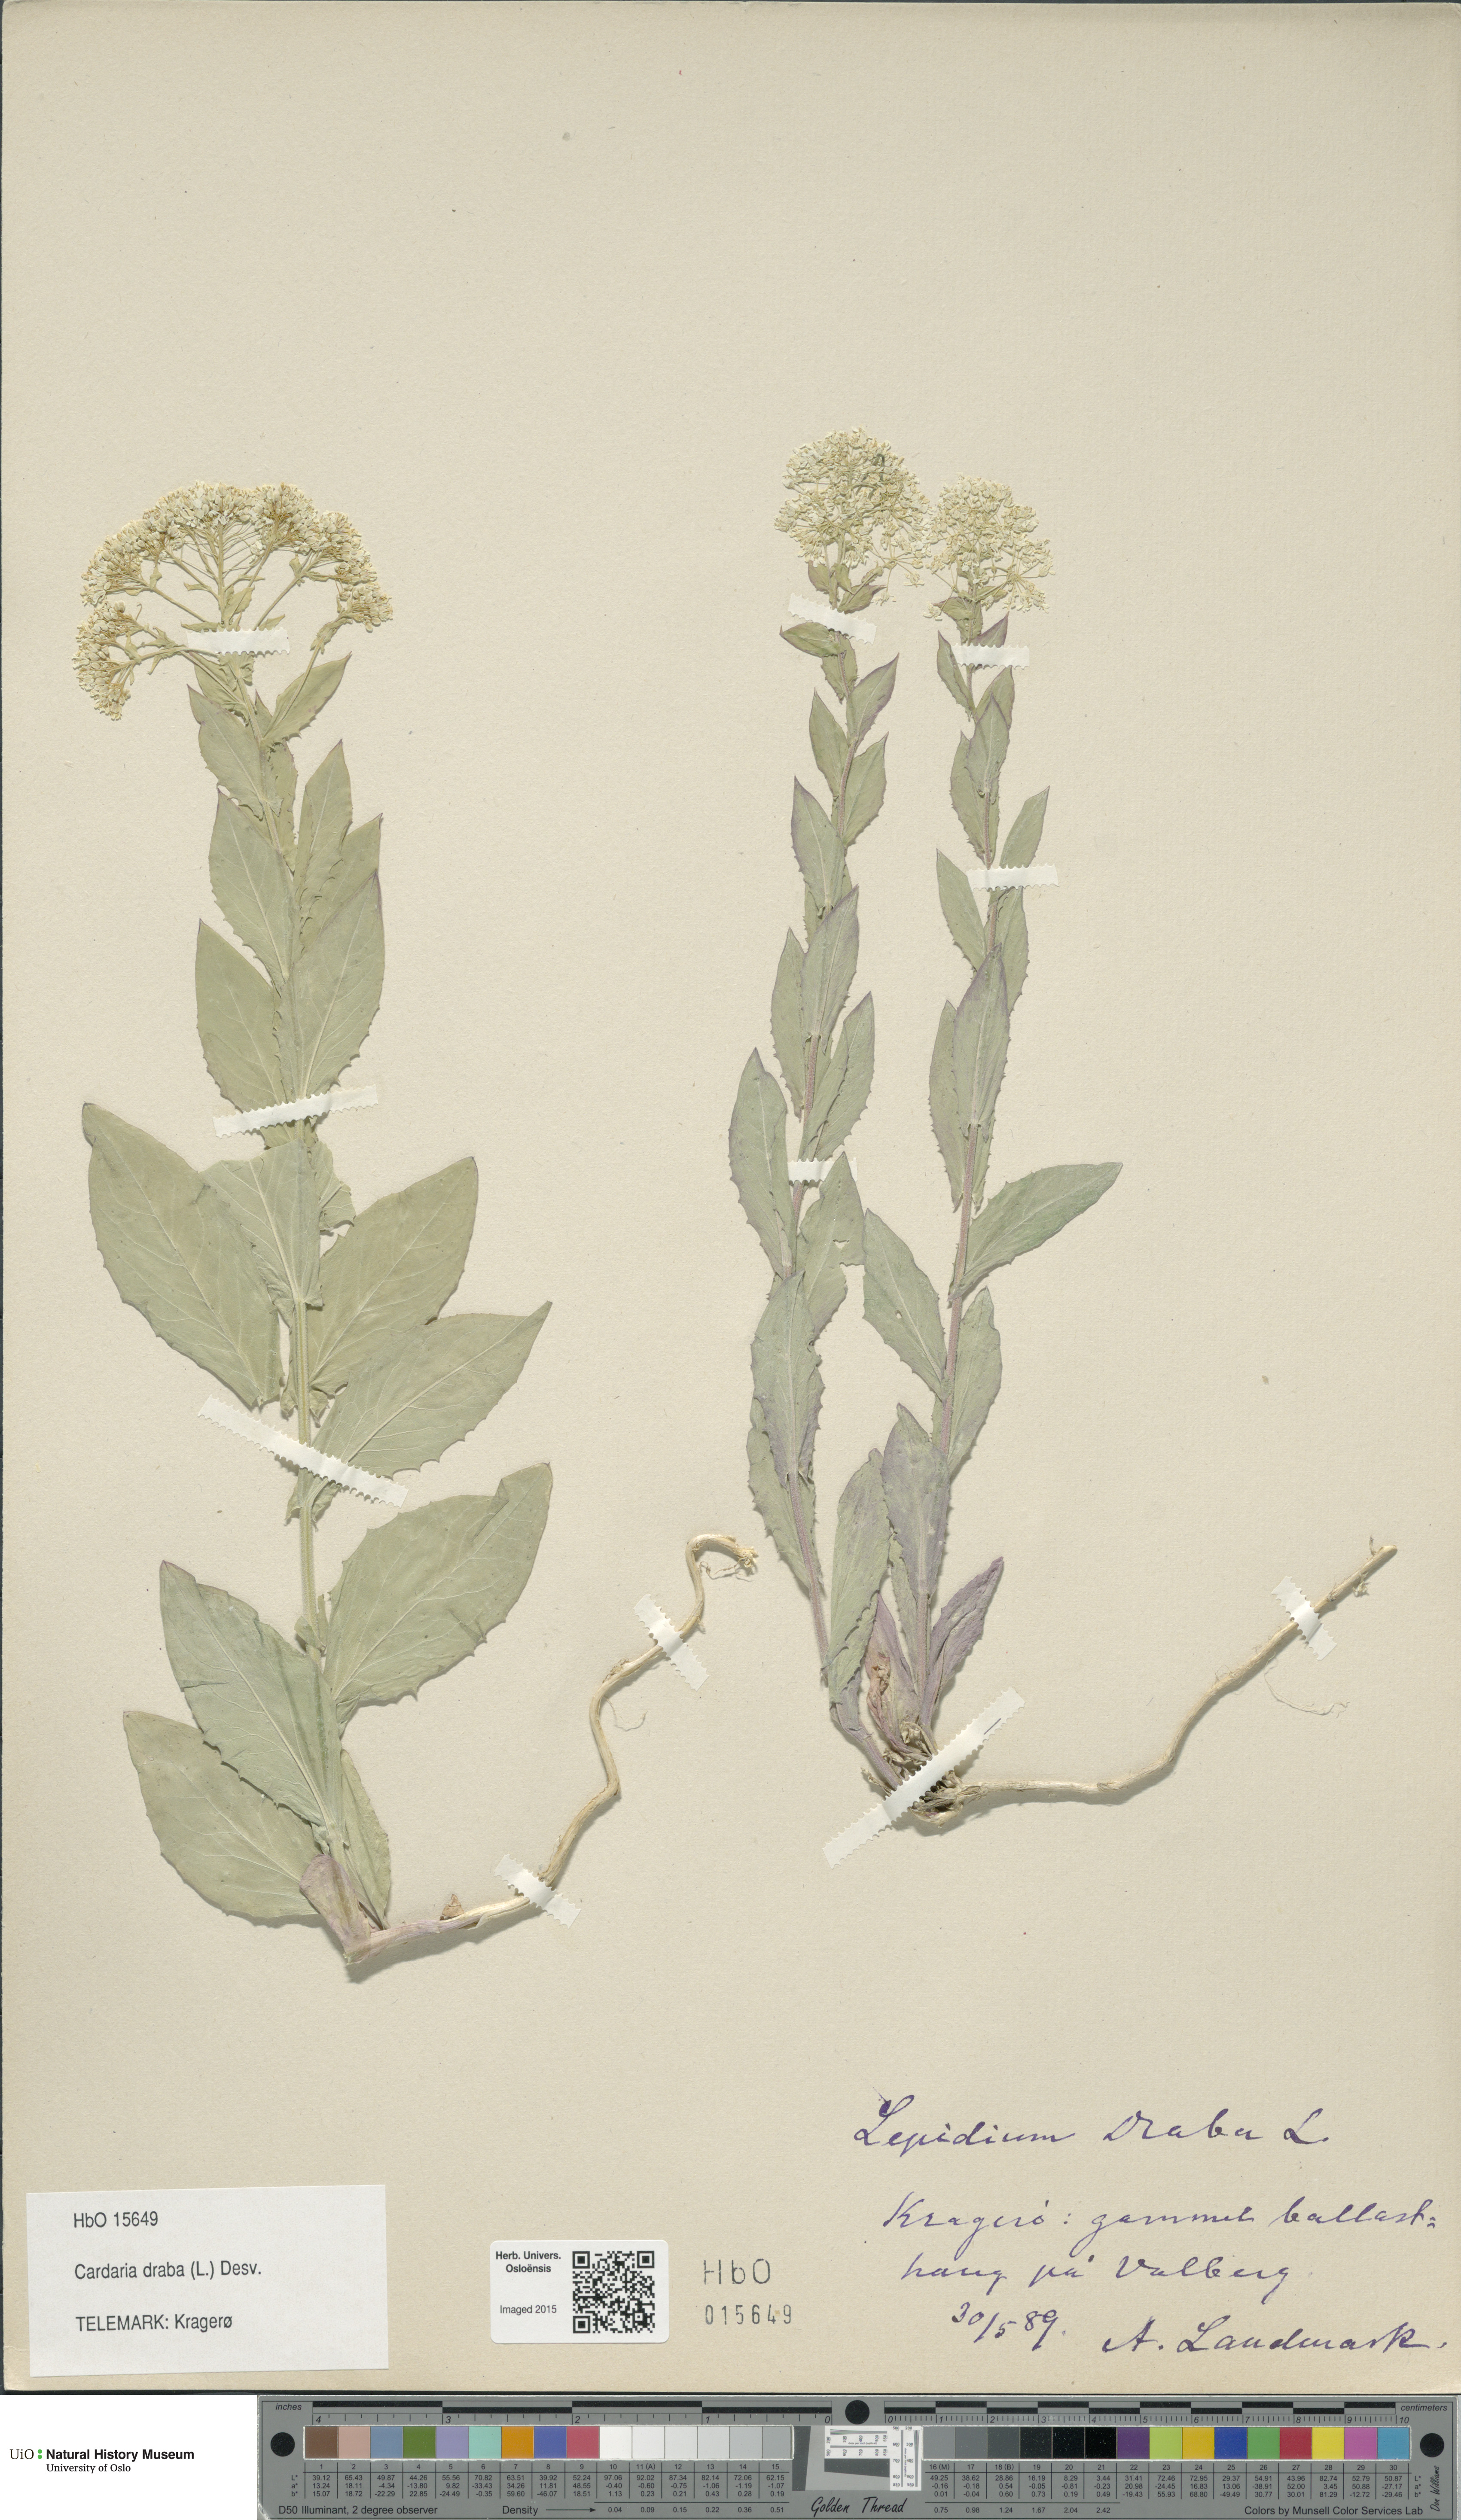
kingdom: Plantae
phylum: Tracheophyta
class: Magnoliopsida
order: Brassicales
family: Brassicaceae
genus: Lepidium
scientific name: Lepidium draba
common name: Hoary cress
